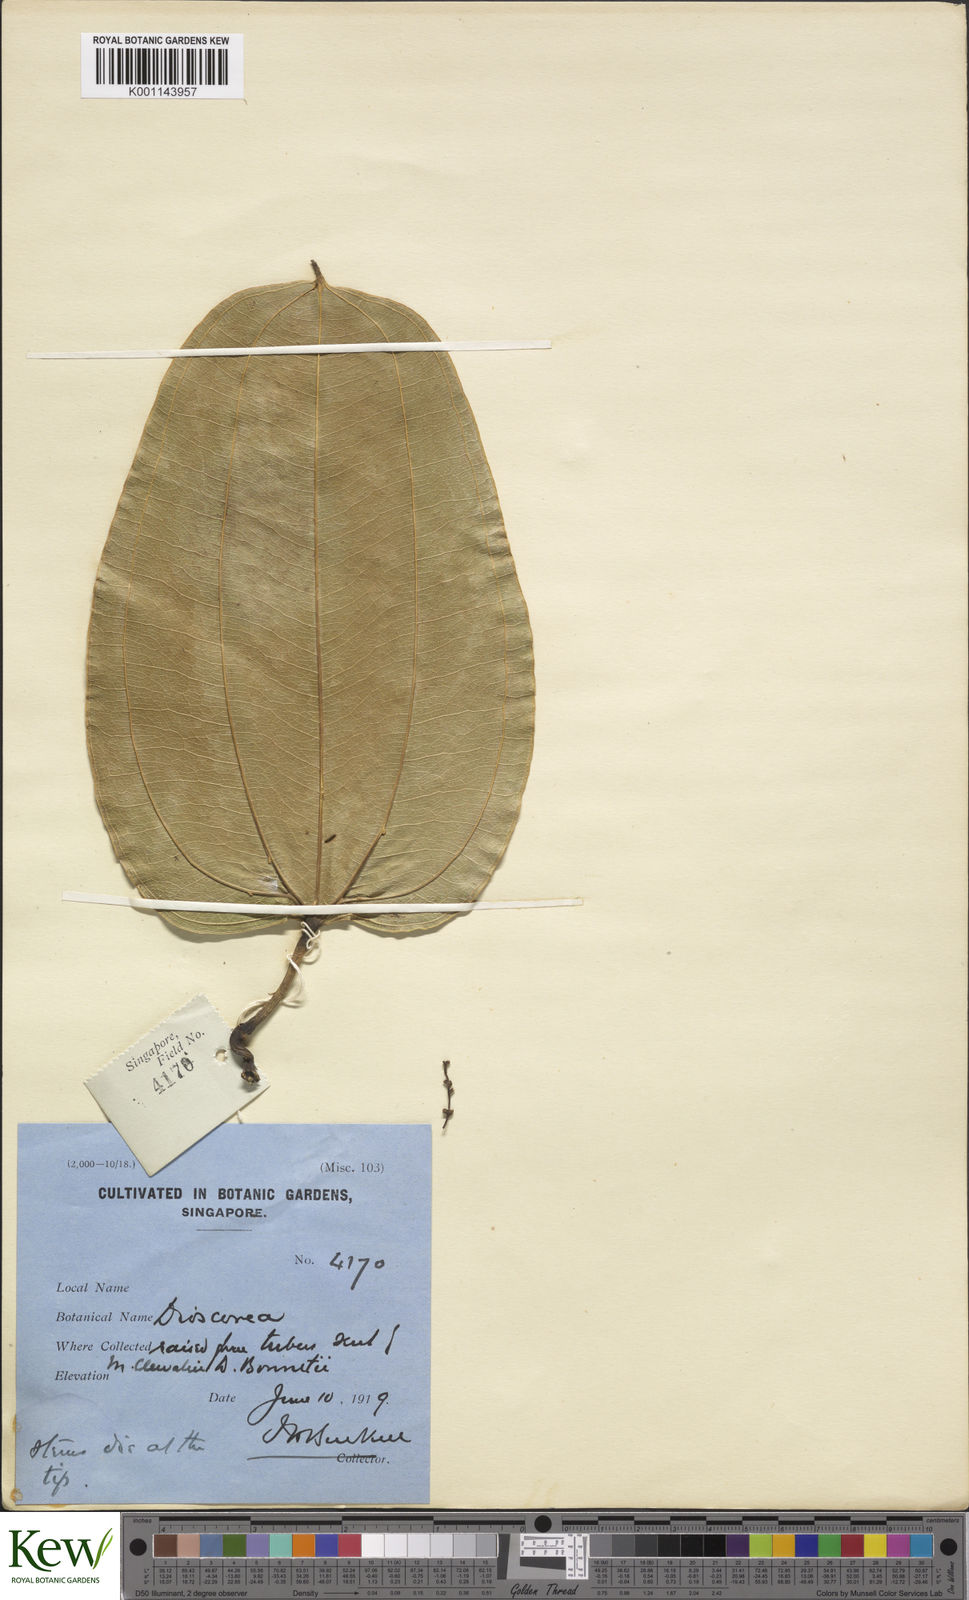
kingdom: Plantae
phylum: Tracheophyta
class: Liliopsida
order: Dioscoreales
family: Dioscoreaceae
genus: Dioscorea
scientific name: Dioscorea cirrhosa
